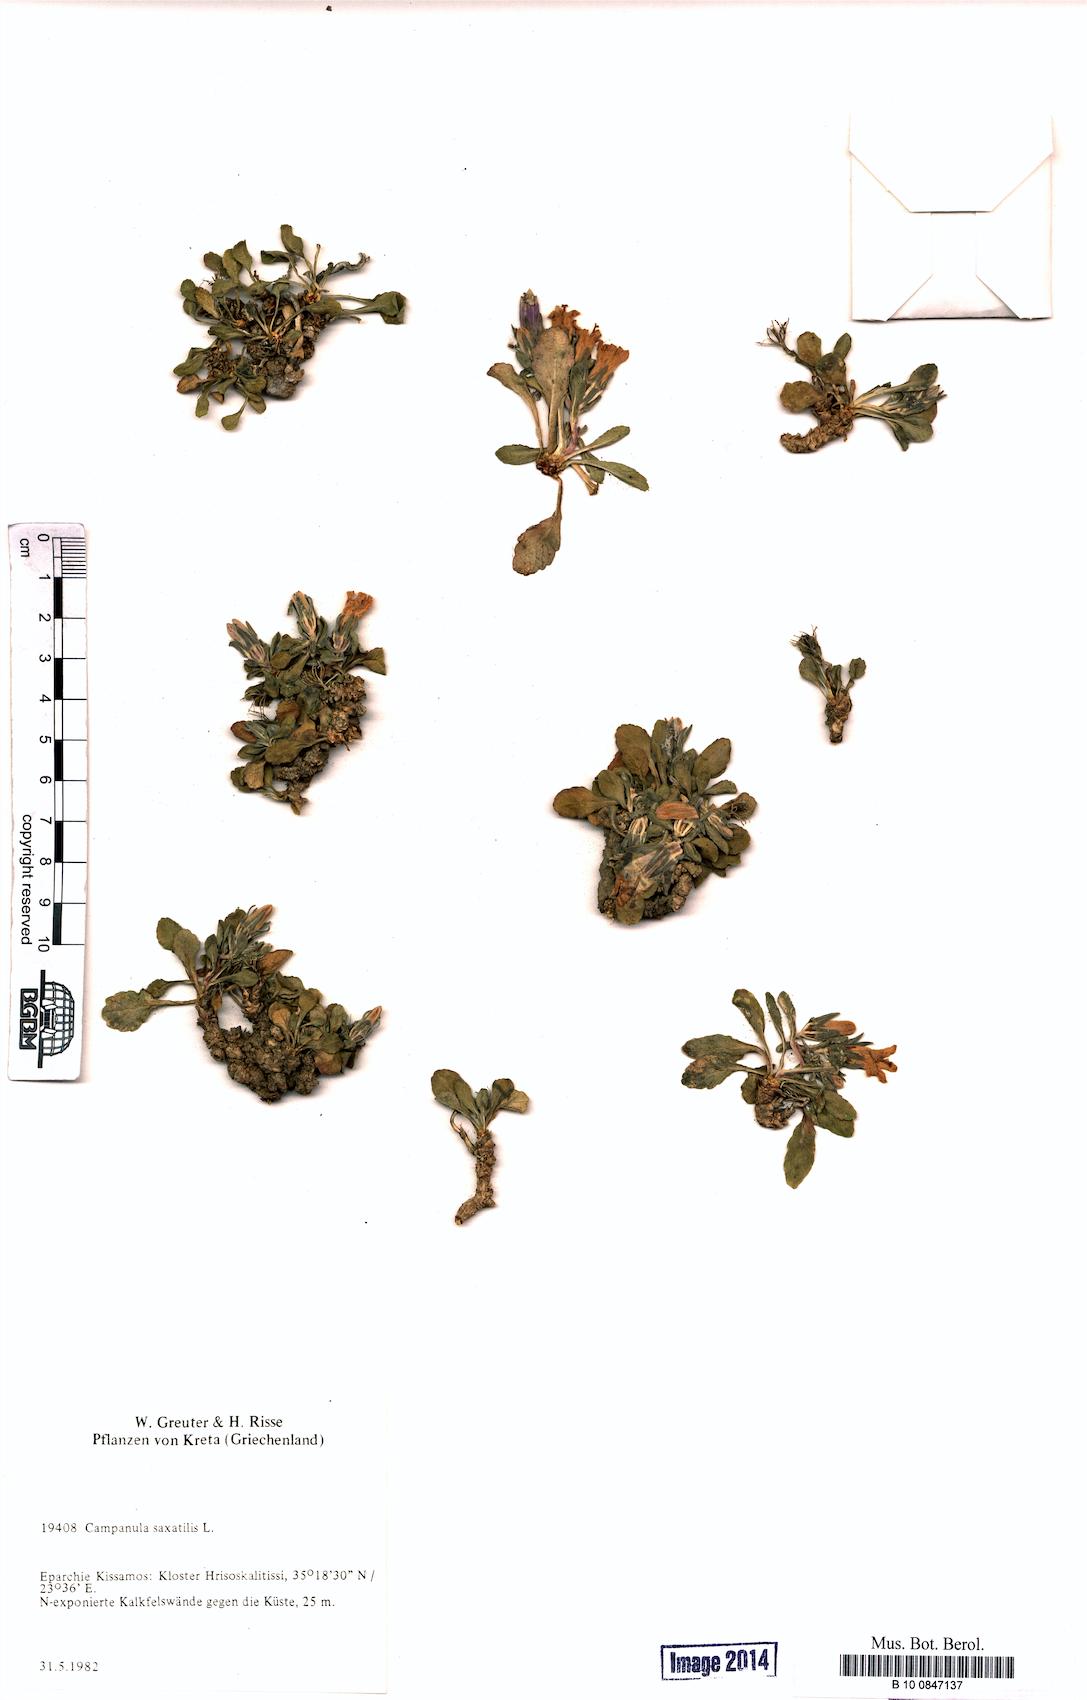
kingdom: Plantae
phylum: Tracheophyta
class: Magnoliopsida
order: Asterales
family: Campanulaceae
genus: Campanula
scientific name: Campanula saxatilis
